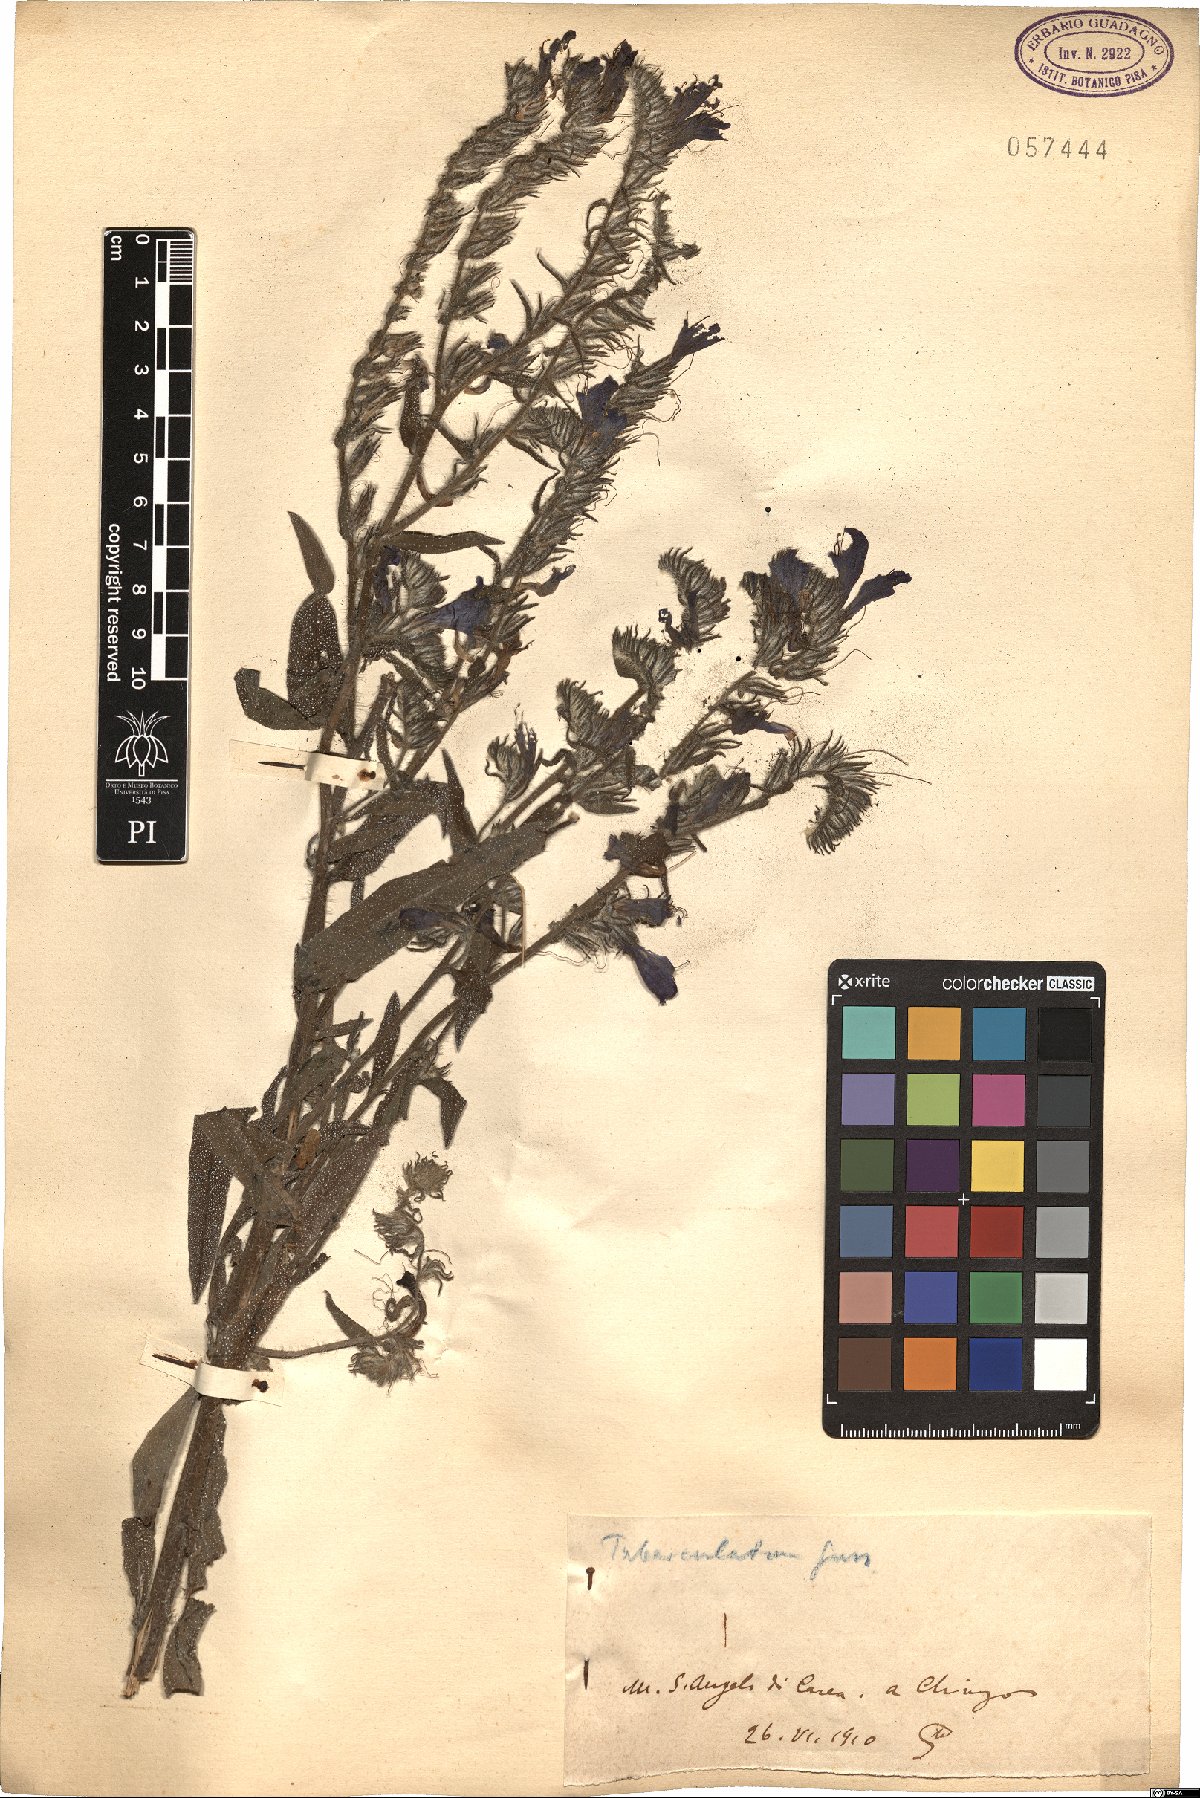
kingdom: Plantae
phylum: Tracheophyta
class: Magnoliopsida
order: Boraginales
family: Boraginaceae
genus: Echium
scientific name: Echium tuberculatum
